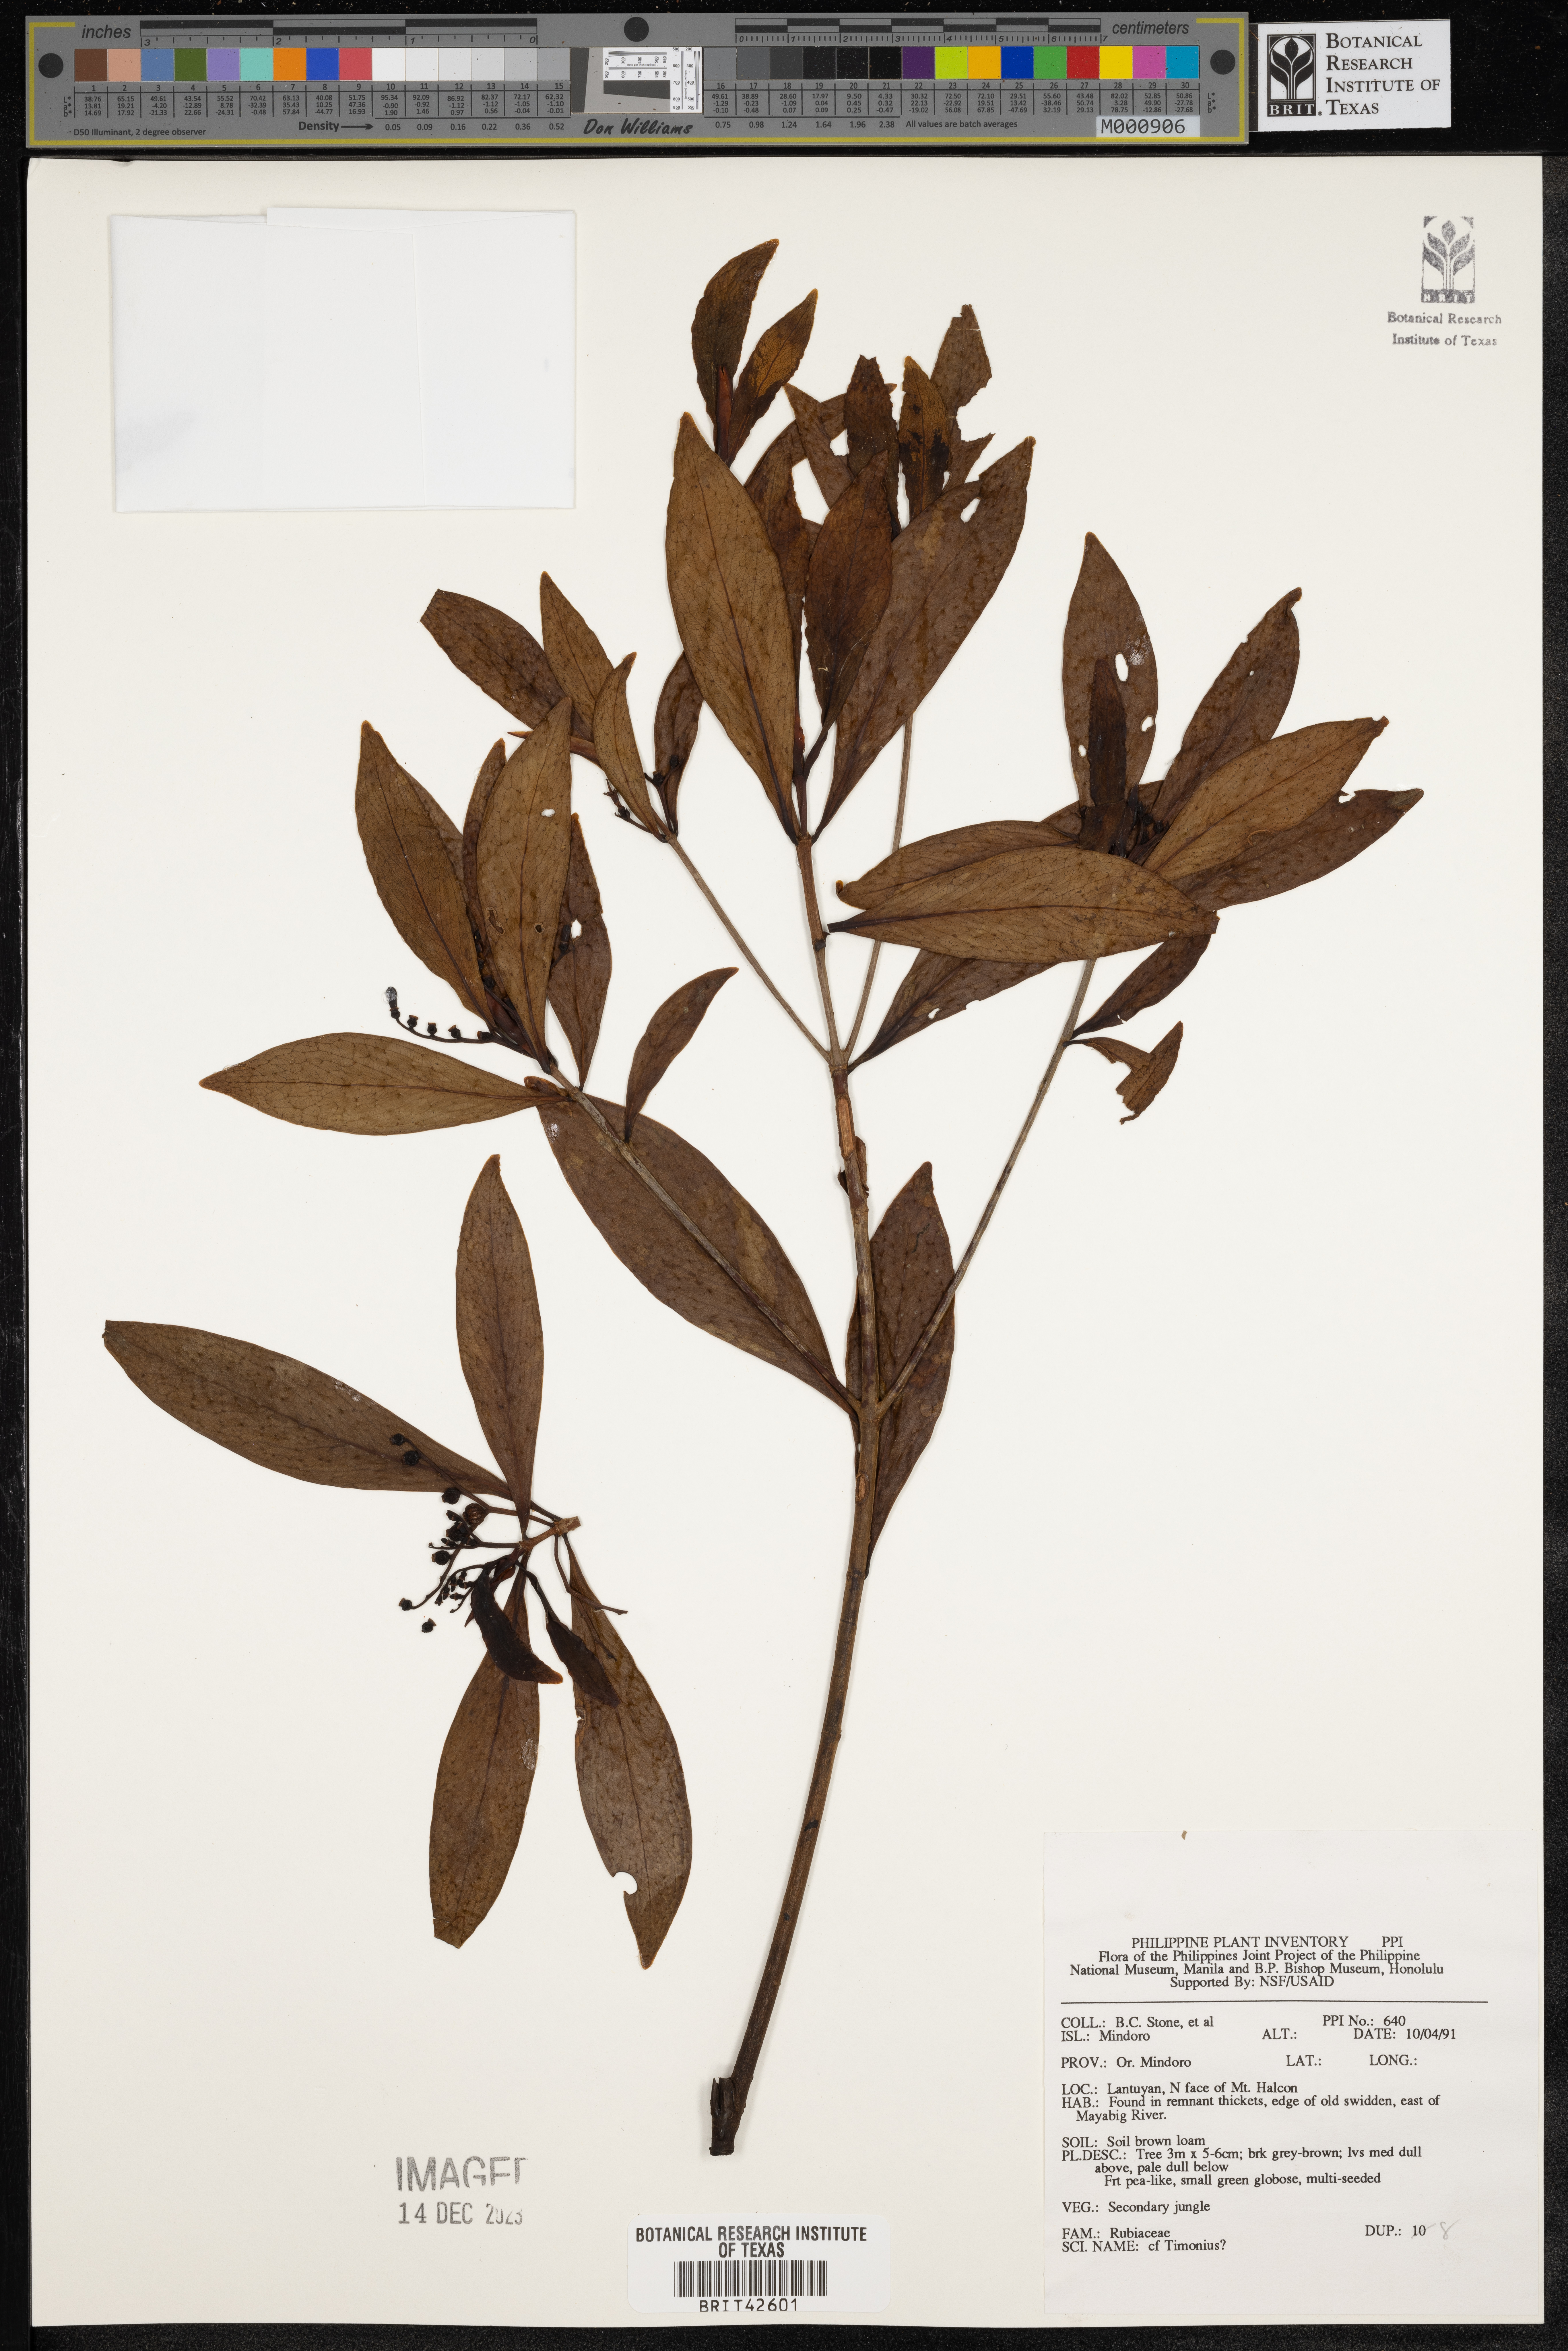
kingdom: Plantae
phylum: Tracheophyta
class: Magnoliopsida
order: Gentianales
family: Rubiaceae
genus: Timonius
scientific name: Timonius
